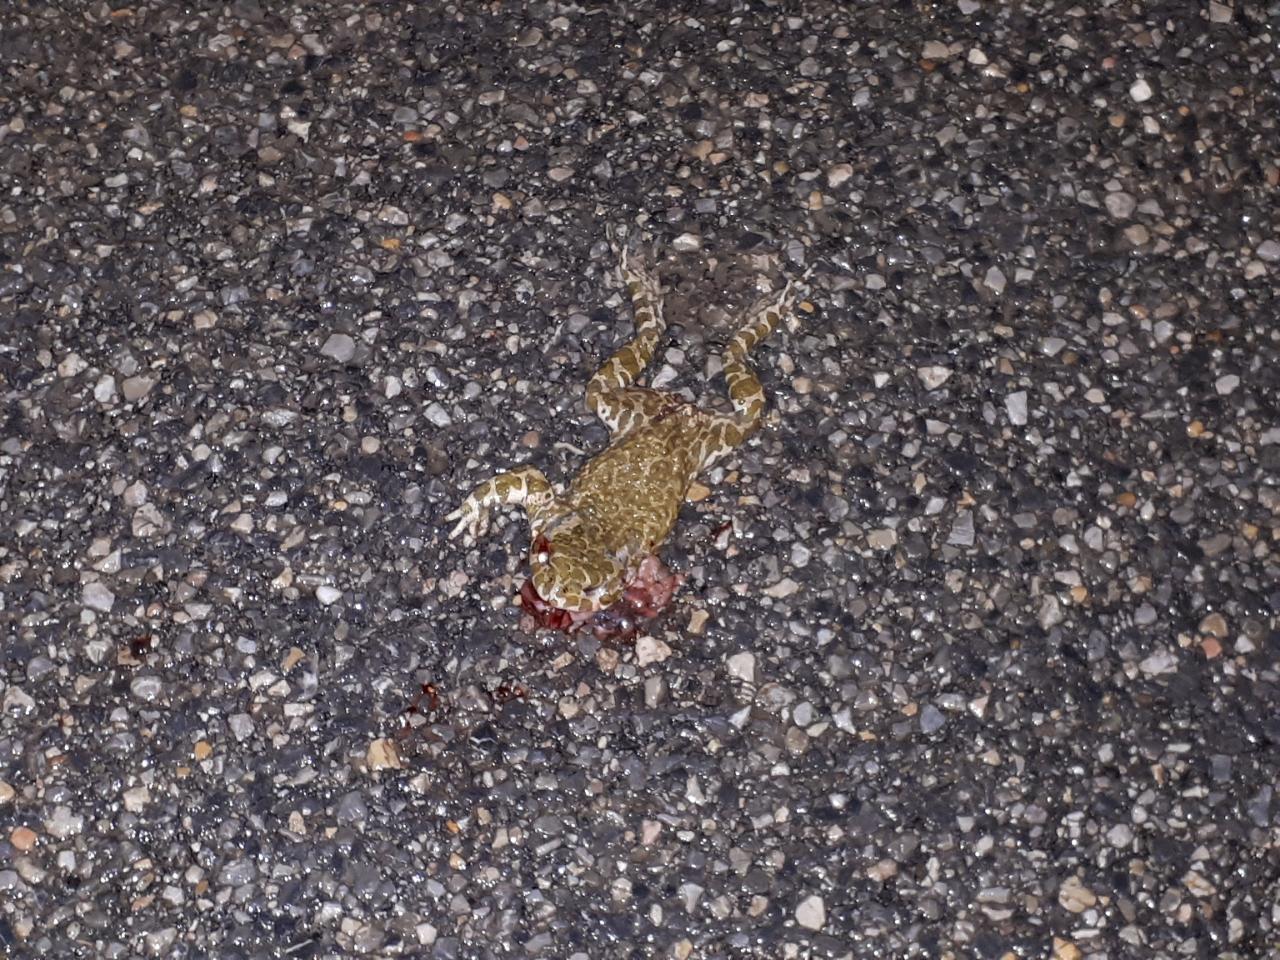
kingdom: Animalia
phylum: Chordata
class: Amphibia
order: Anura
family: Bufonidae
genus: Bufotes
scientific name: Bufotes viridis
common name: European green toad
